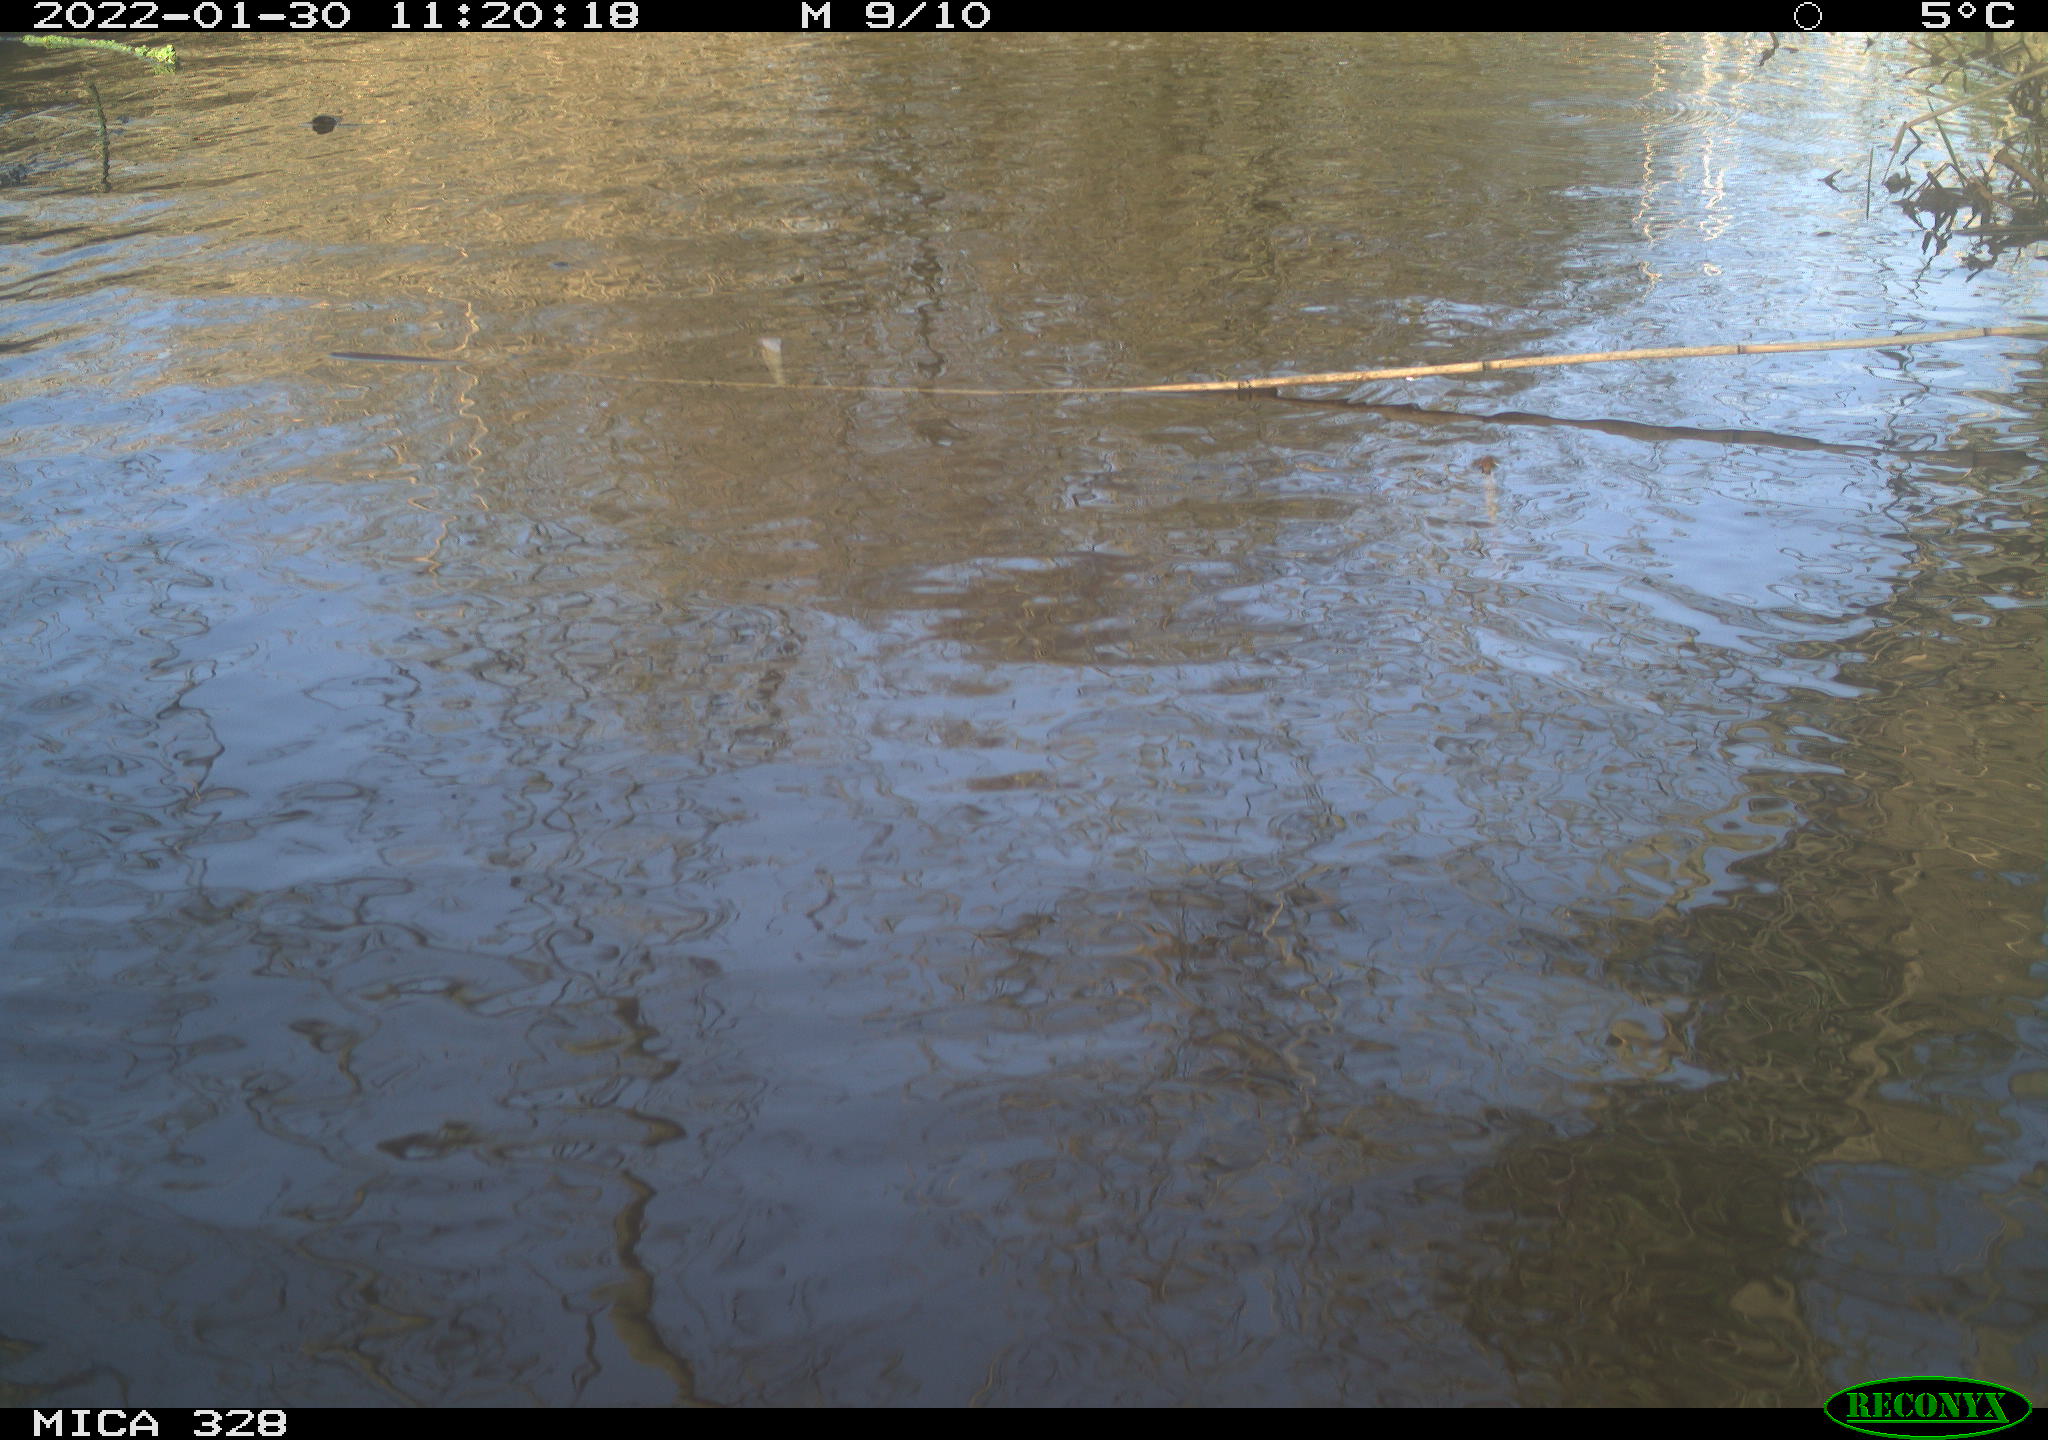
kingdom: Animalia
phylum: Chordata
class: Mammalia
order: Rodentia
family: Cricetidae
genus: Ondatra
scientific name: Ondatra zibethicus
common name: Muskrat
